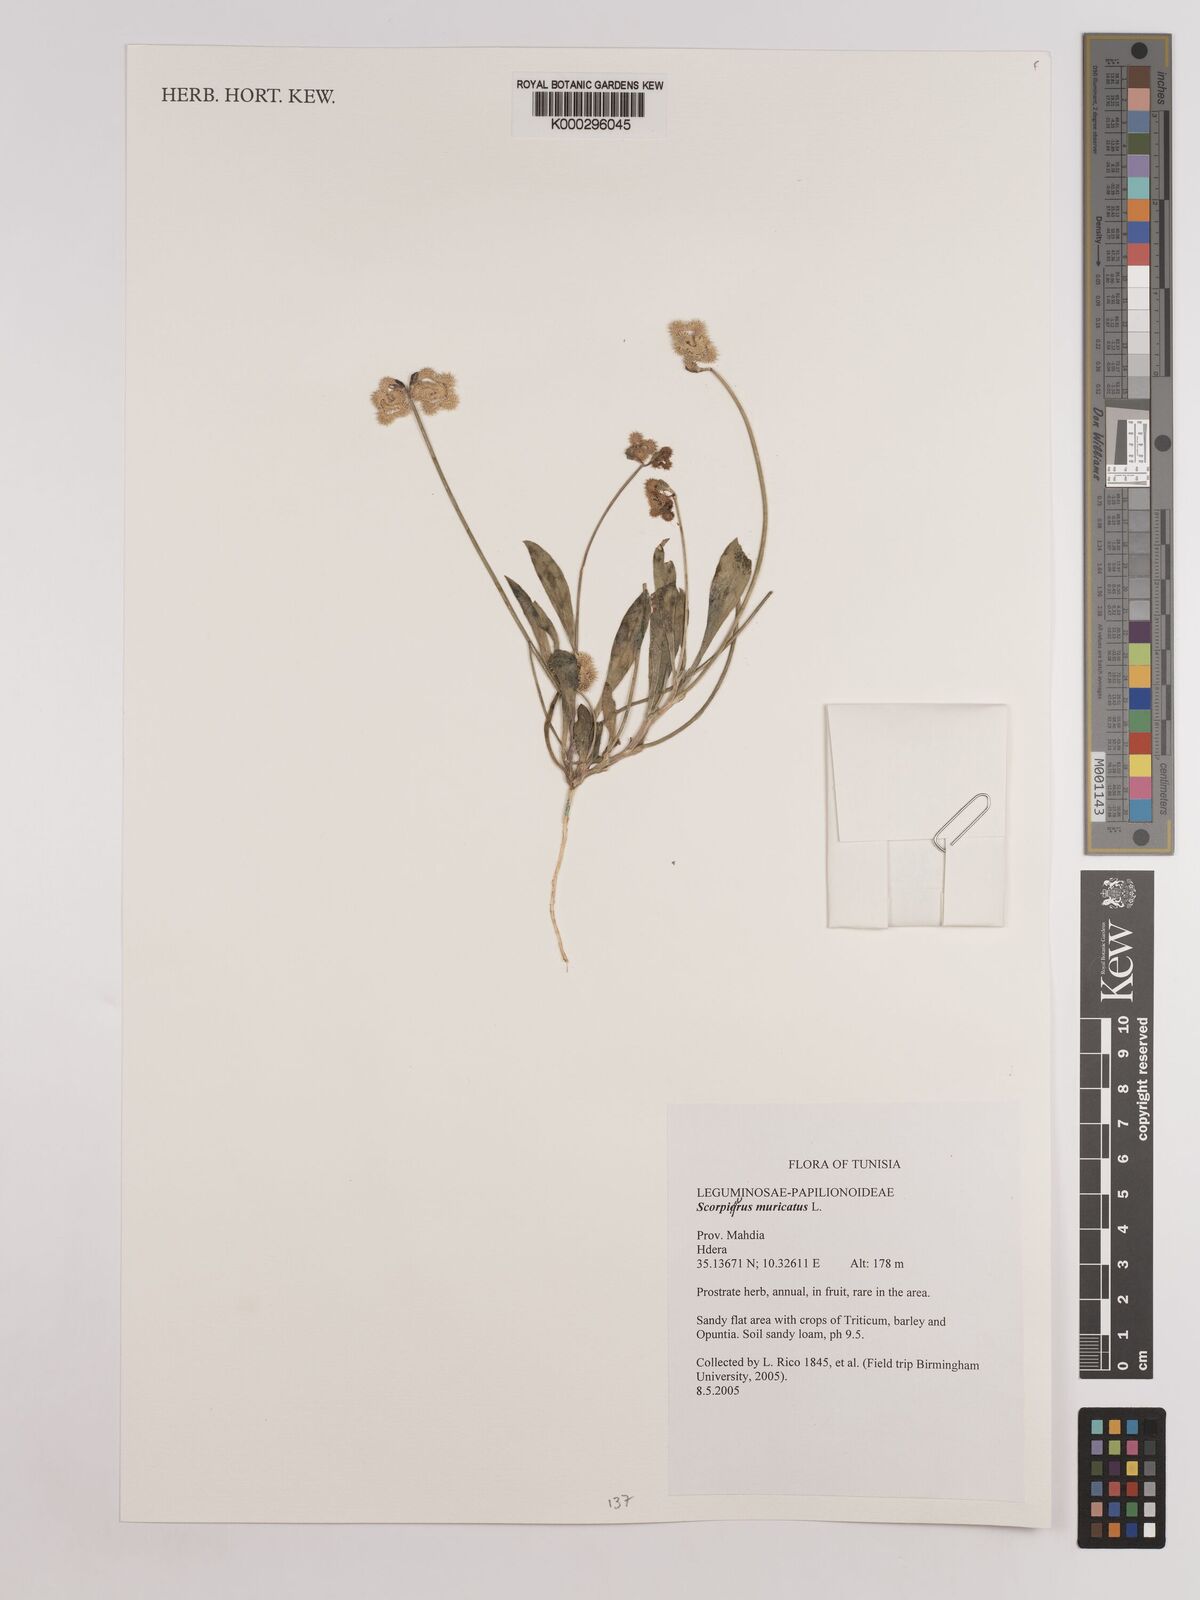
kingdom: Plantae
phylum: Tracheophyta
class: Magnoliopsida
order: Fabales
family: Fabaceae
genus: Scorpiurus
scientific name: Scorpiurus muricatus
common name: Caterpillar-plant
